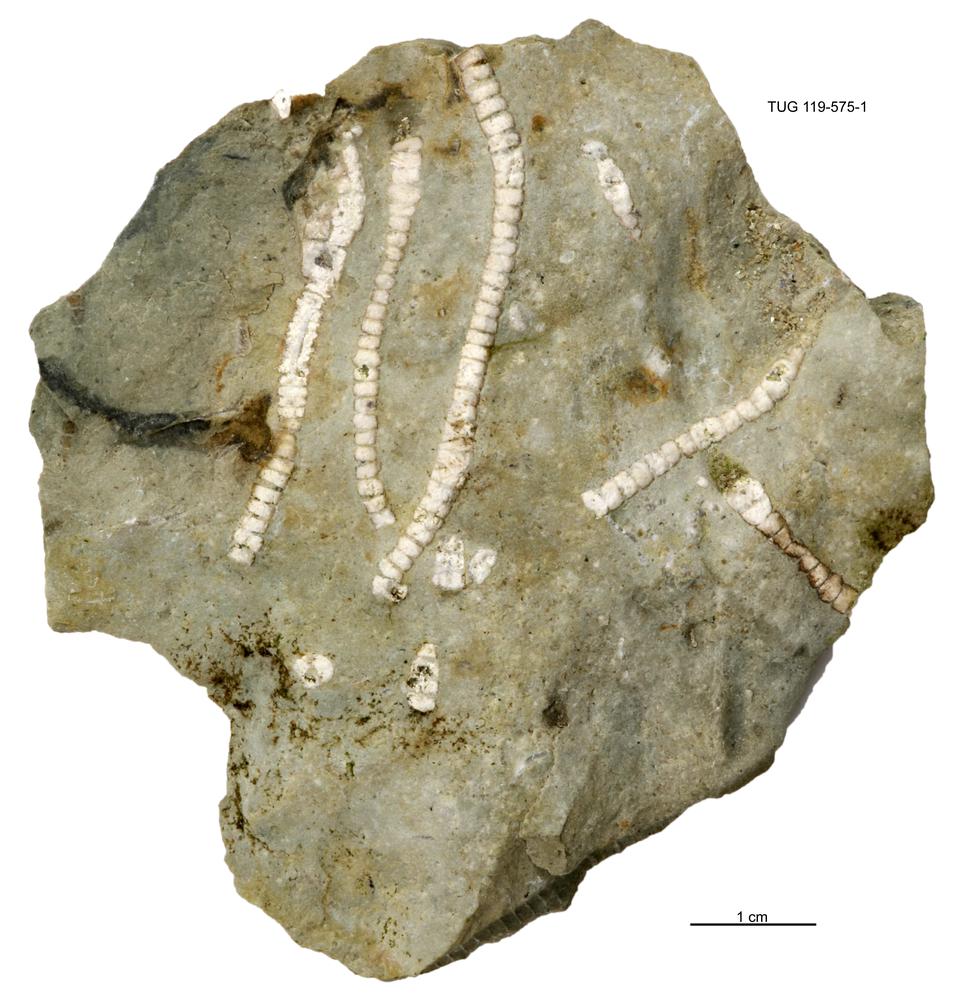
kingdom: Animalia
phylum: Echinodermata
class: Crinoidea
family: Iocrinidae
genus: Ristnacrinus
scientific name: Ristnacrinus marinus
